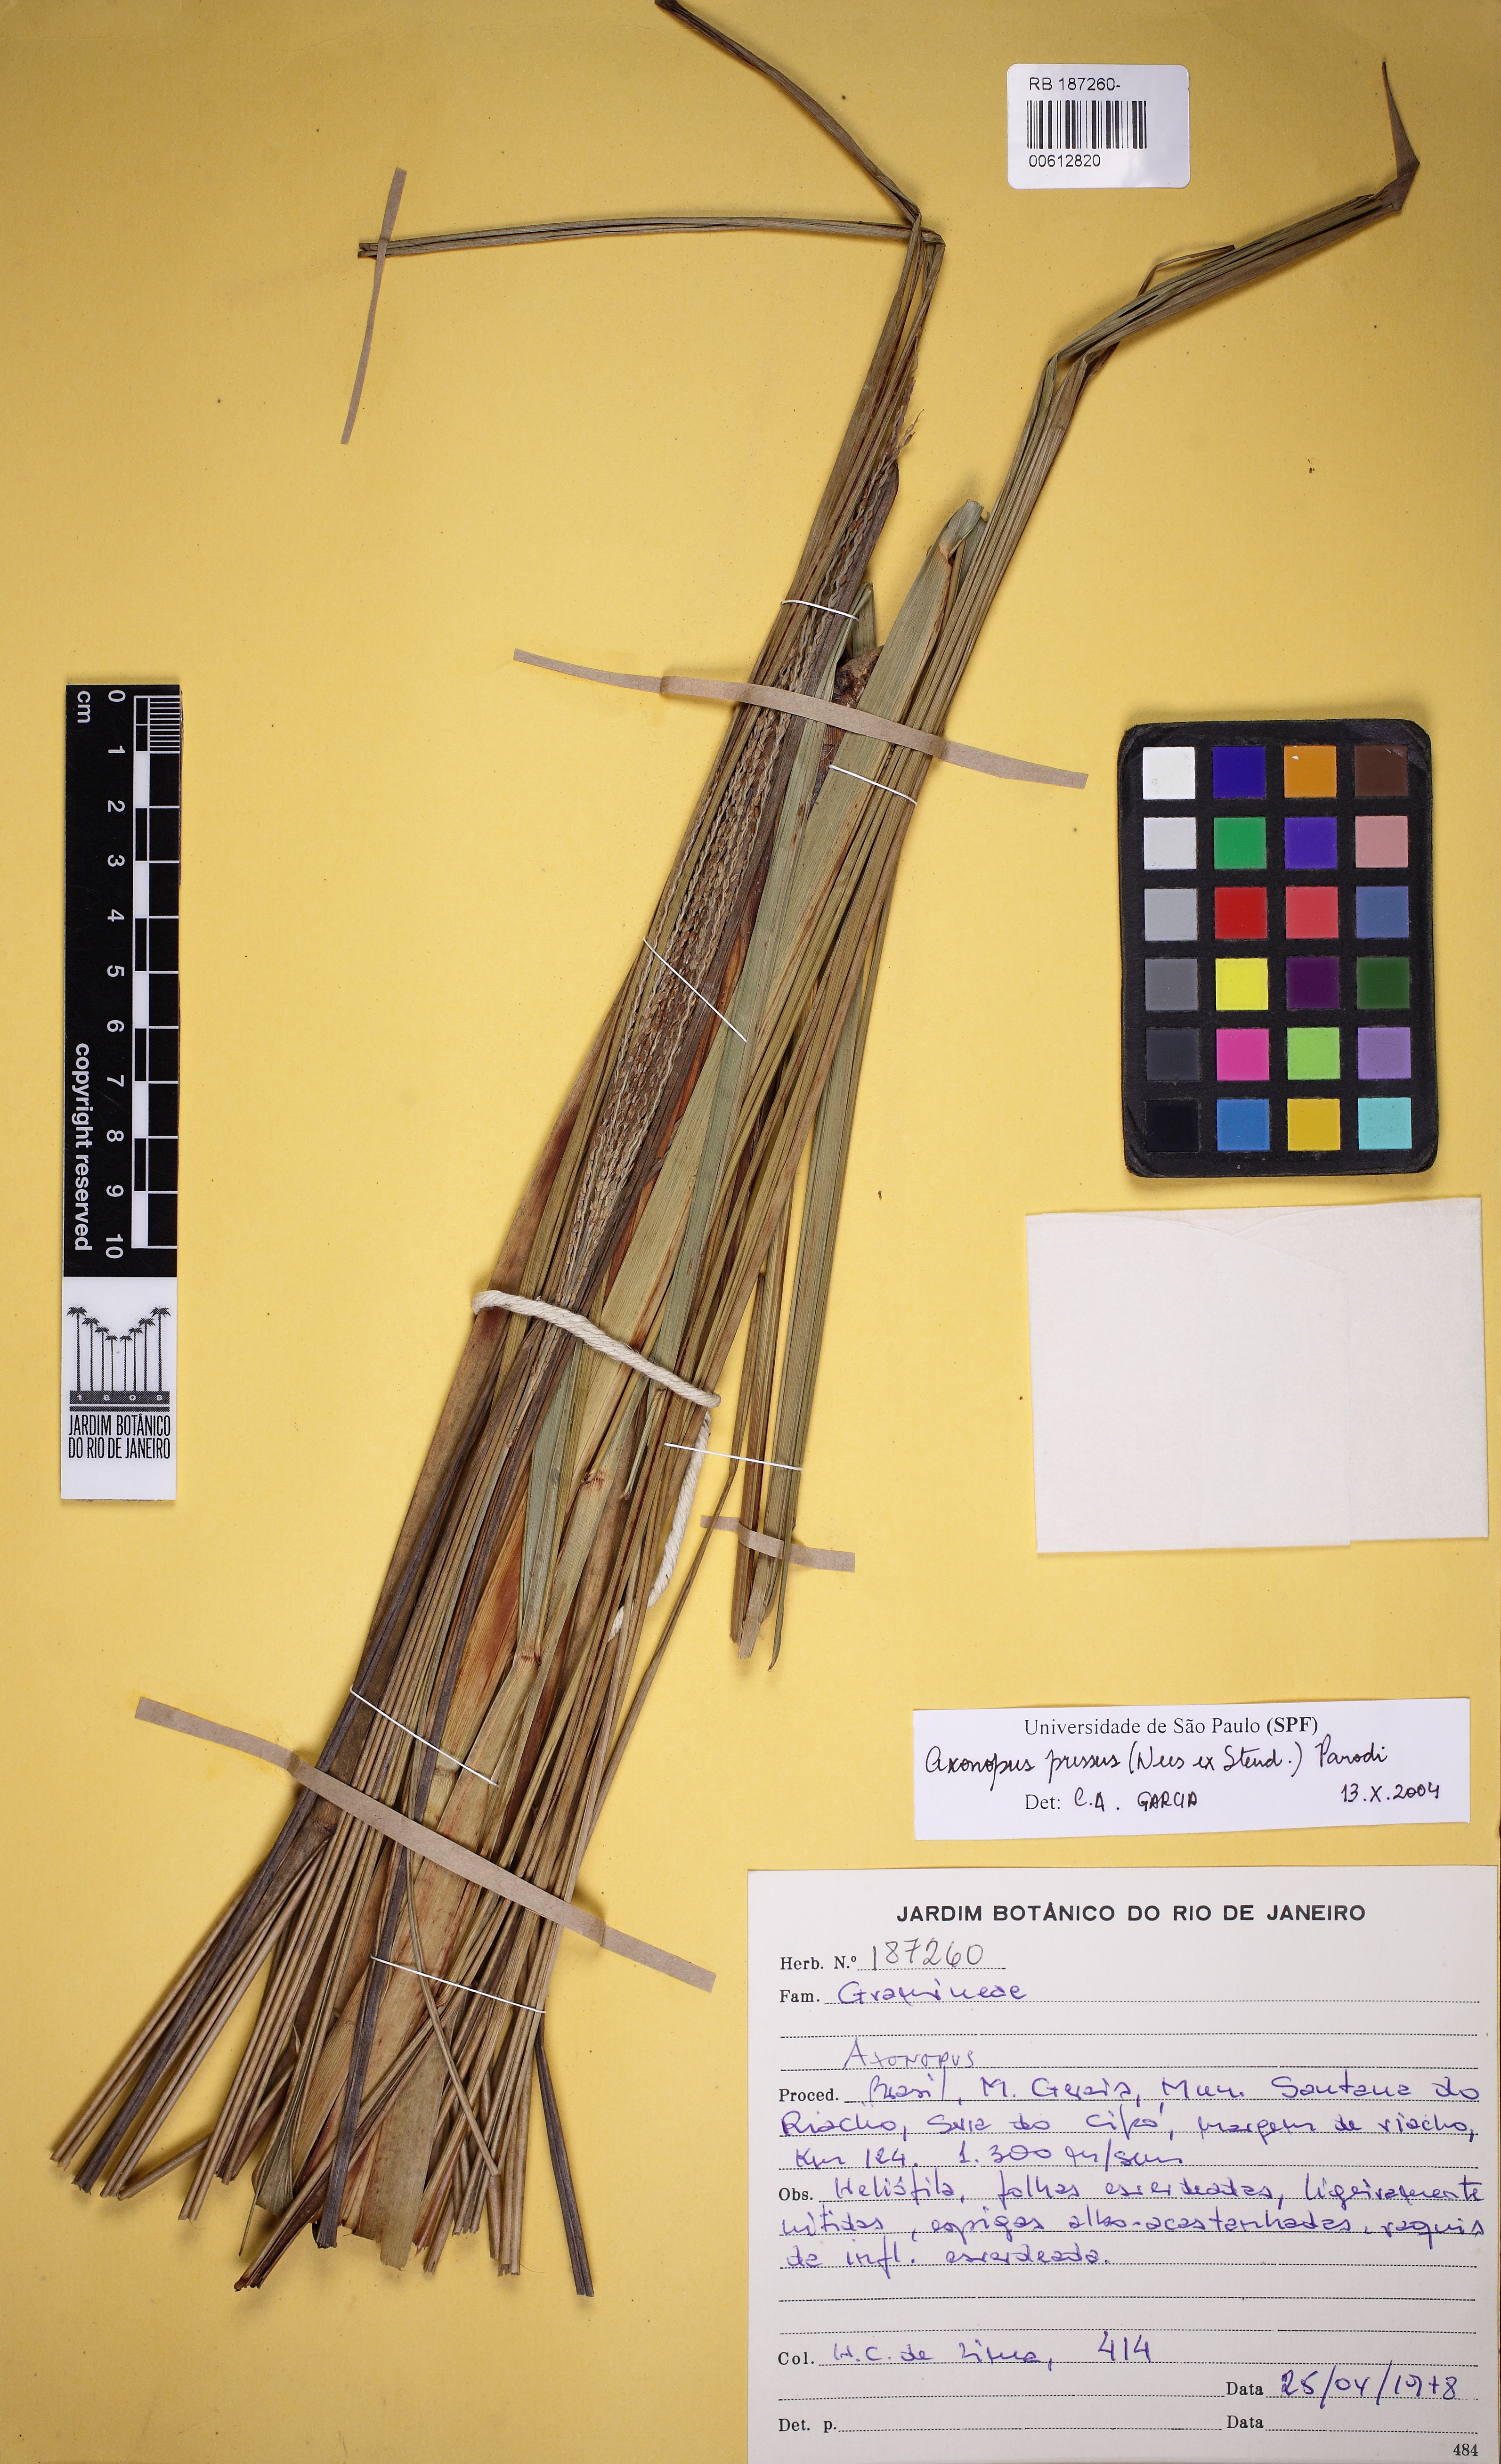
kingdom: Plantae
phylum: Tracheophyta
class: Liliopsida
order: Poales
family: Poaceae
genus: Axonopus
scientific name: Axonopus pressus
